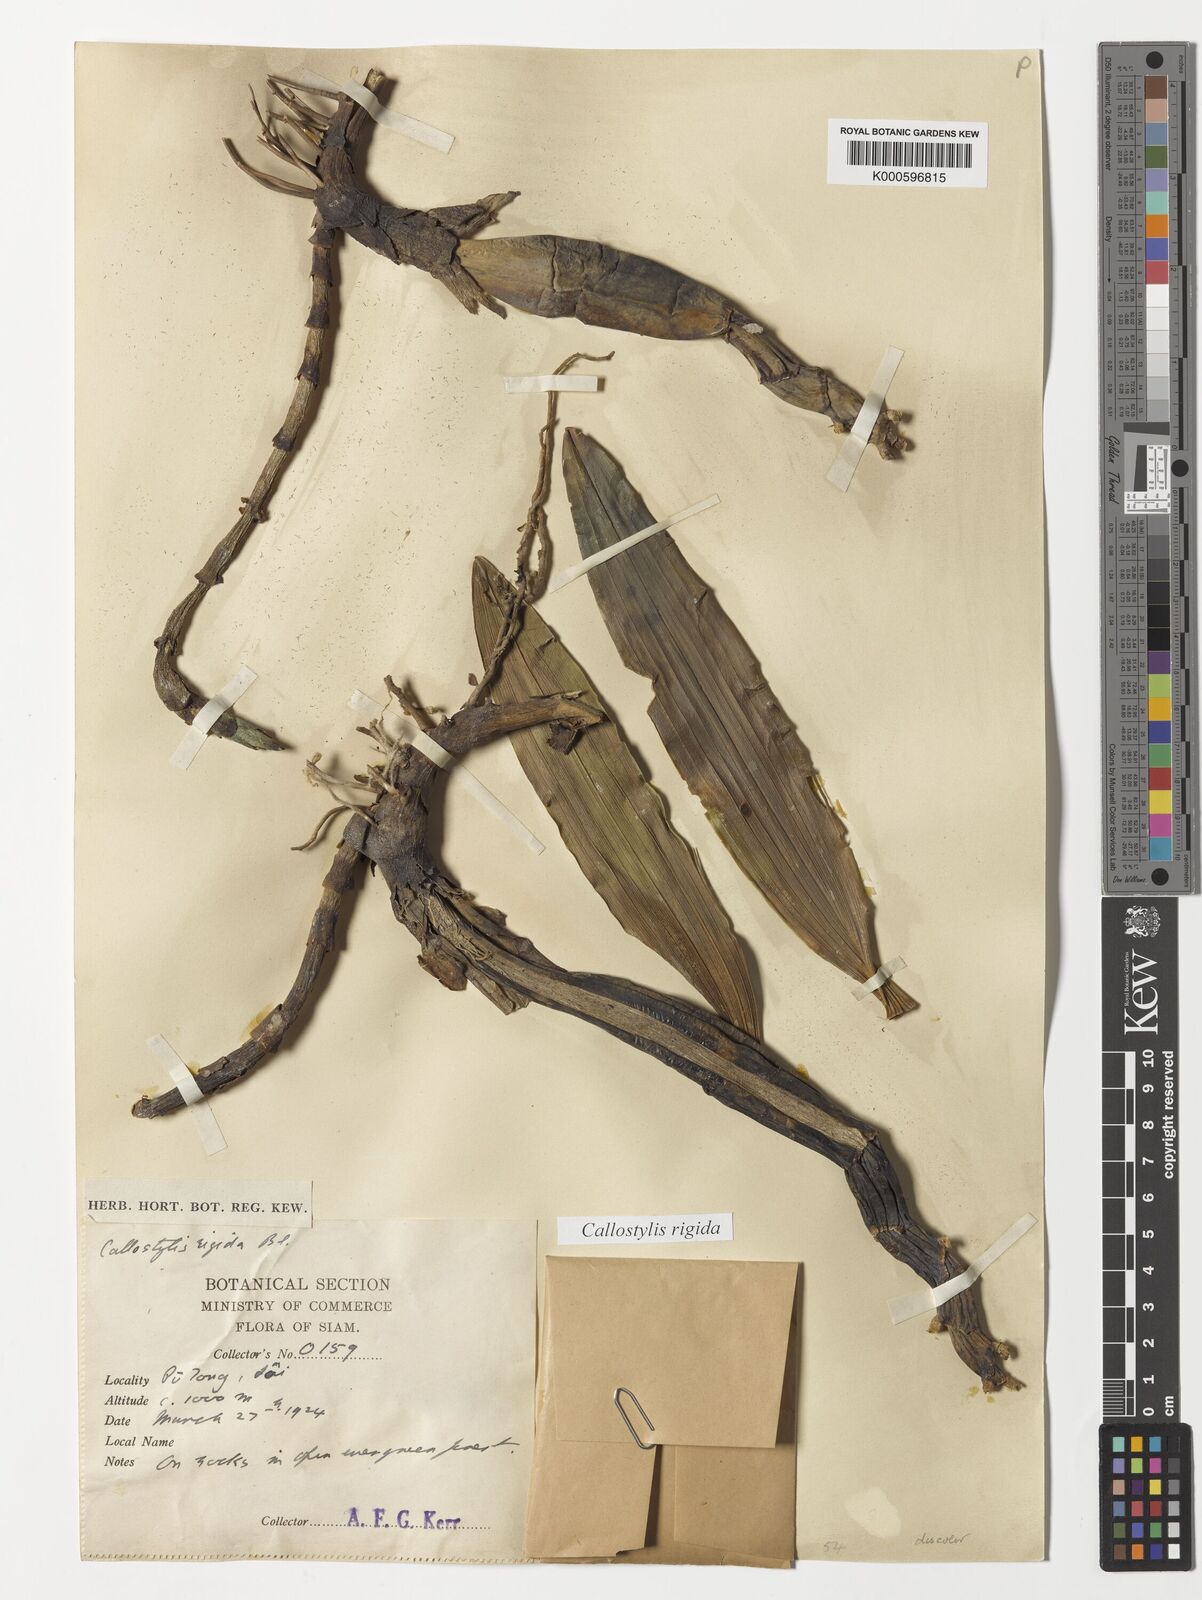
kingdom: Plantae
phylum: Tracheophyta
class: Liliopsida
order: Asparagales
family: Orchidaceae
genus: Callostylis
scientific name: Callostylis rigida
